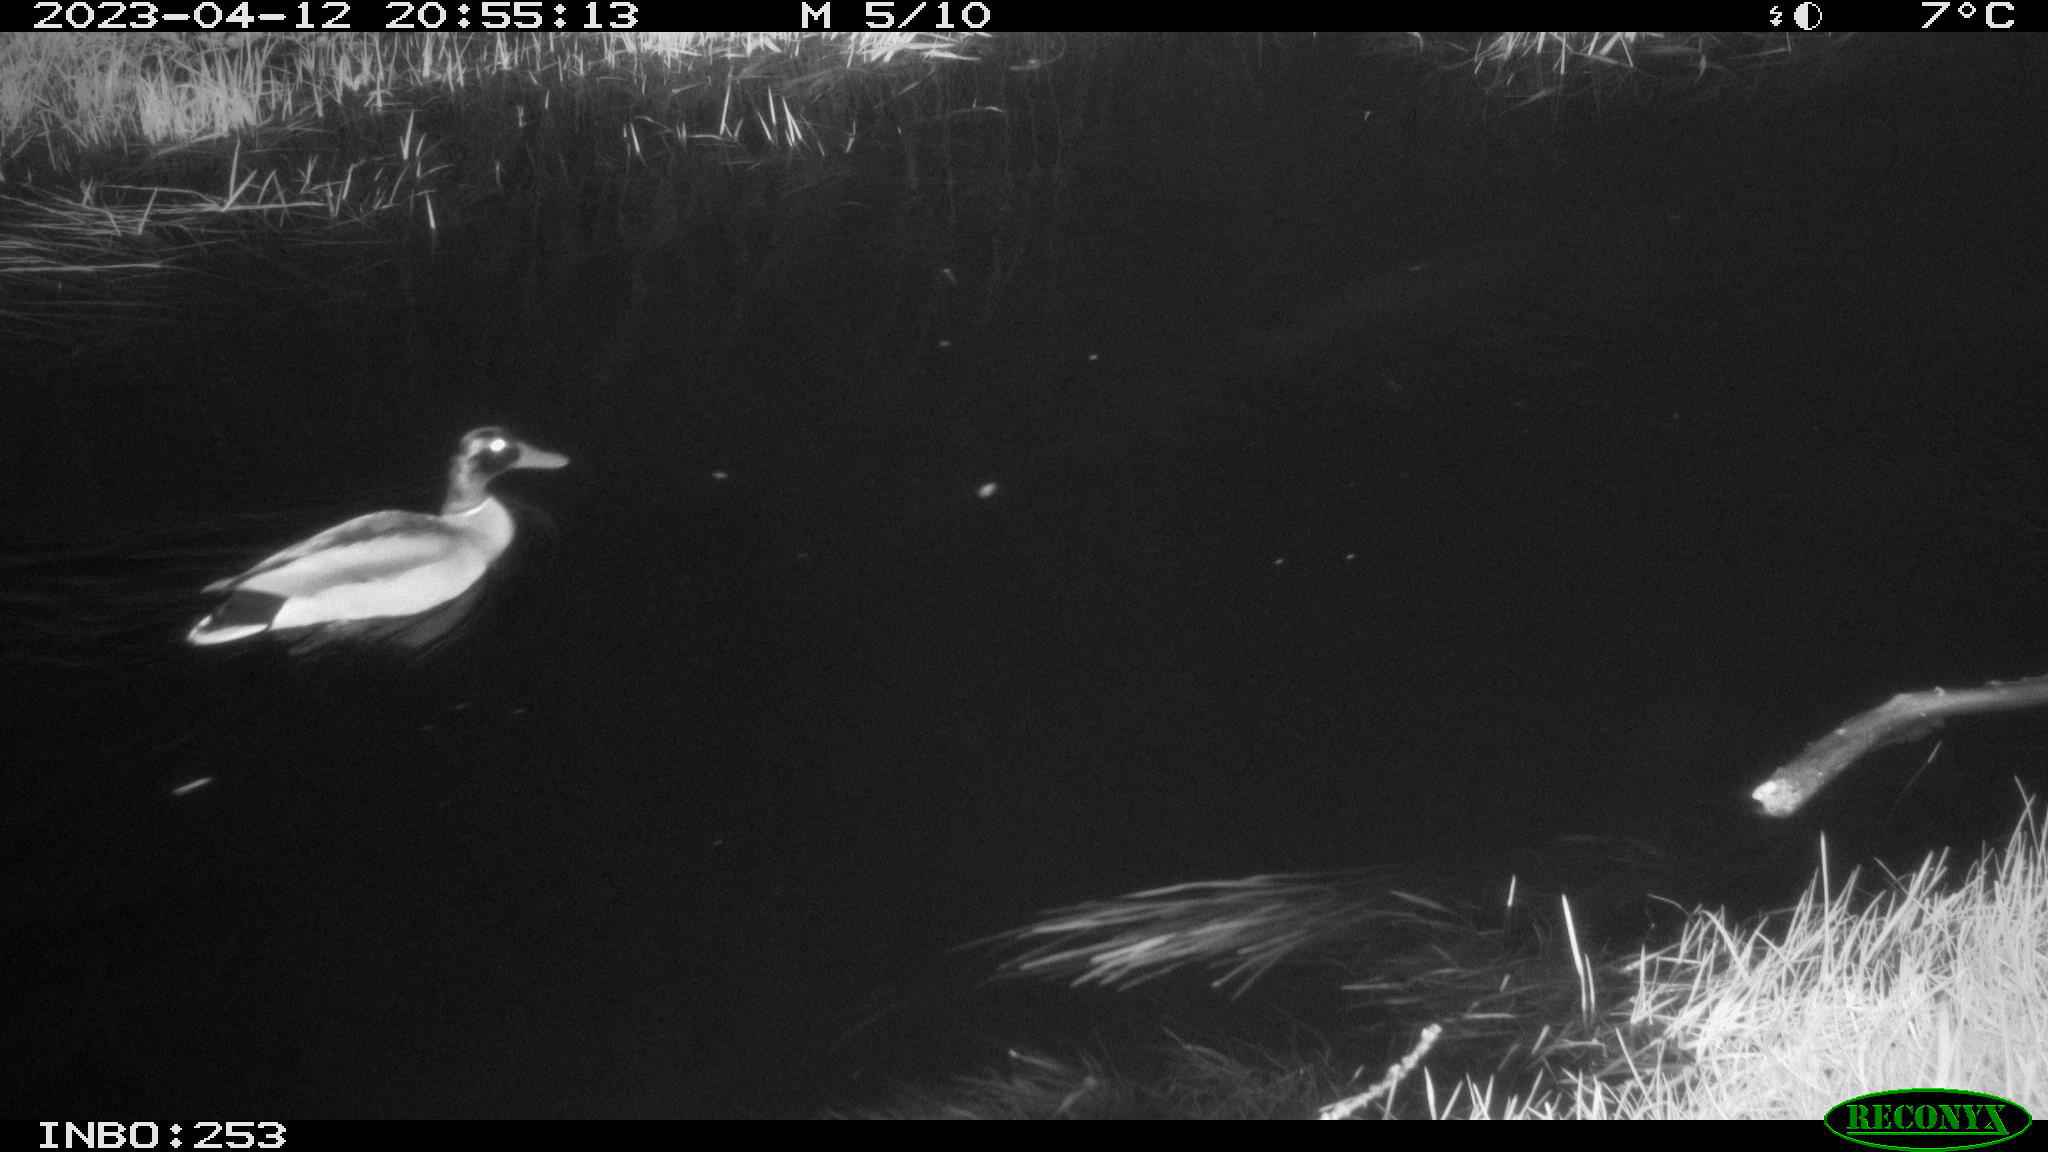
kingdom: Animalia
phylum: Chordata
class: Aves
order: Anseriformes
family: Anatidae
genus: Anas
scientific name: Anas
